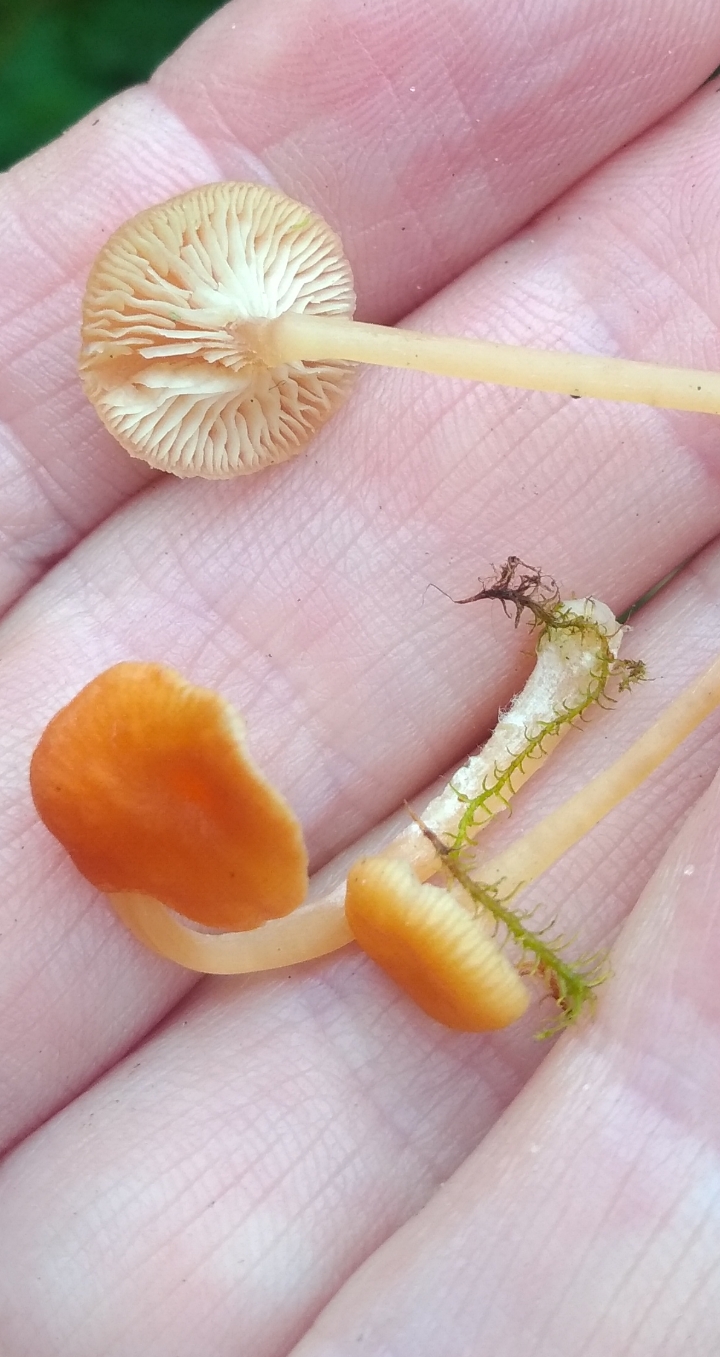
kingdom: Fungi
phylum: Basidiomycota
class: Agaricomycetes
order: Hymenochaetales
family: Rickenellaceae
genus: Rickenella
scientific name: Rickenella fibula
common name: orange mosnavlehat
